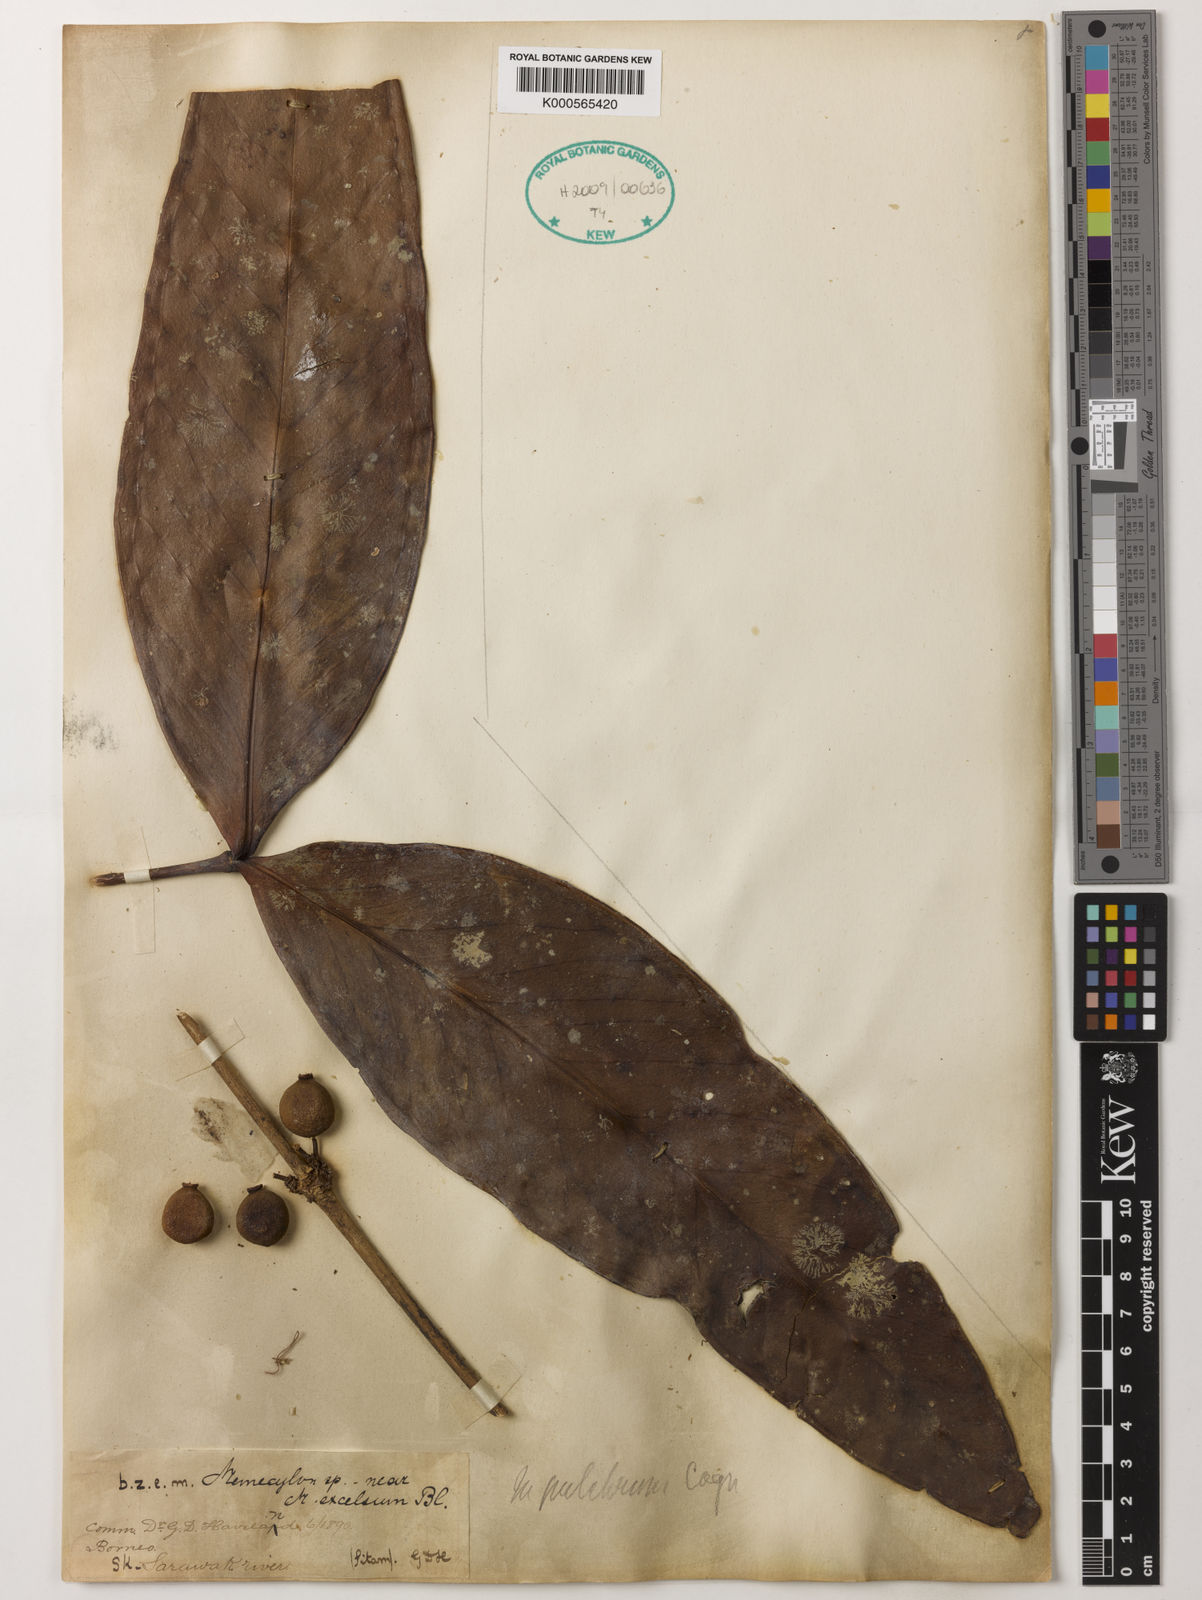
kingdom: Plantae
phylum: Tracheophyta
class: Magnoliopsida
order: Myrtales
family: Melastomataceae
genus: Memecylon
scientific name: Memecylon megacarpum
